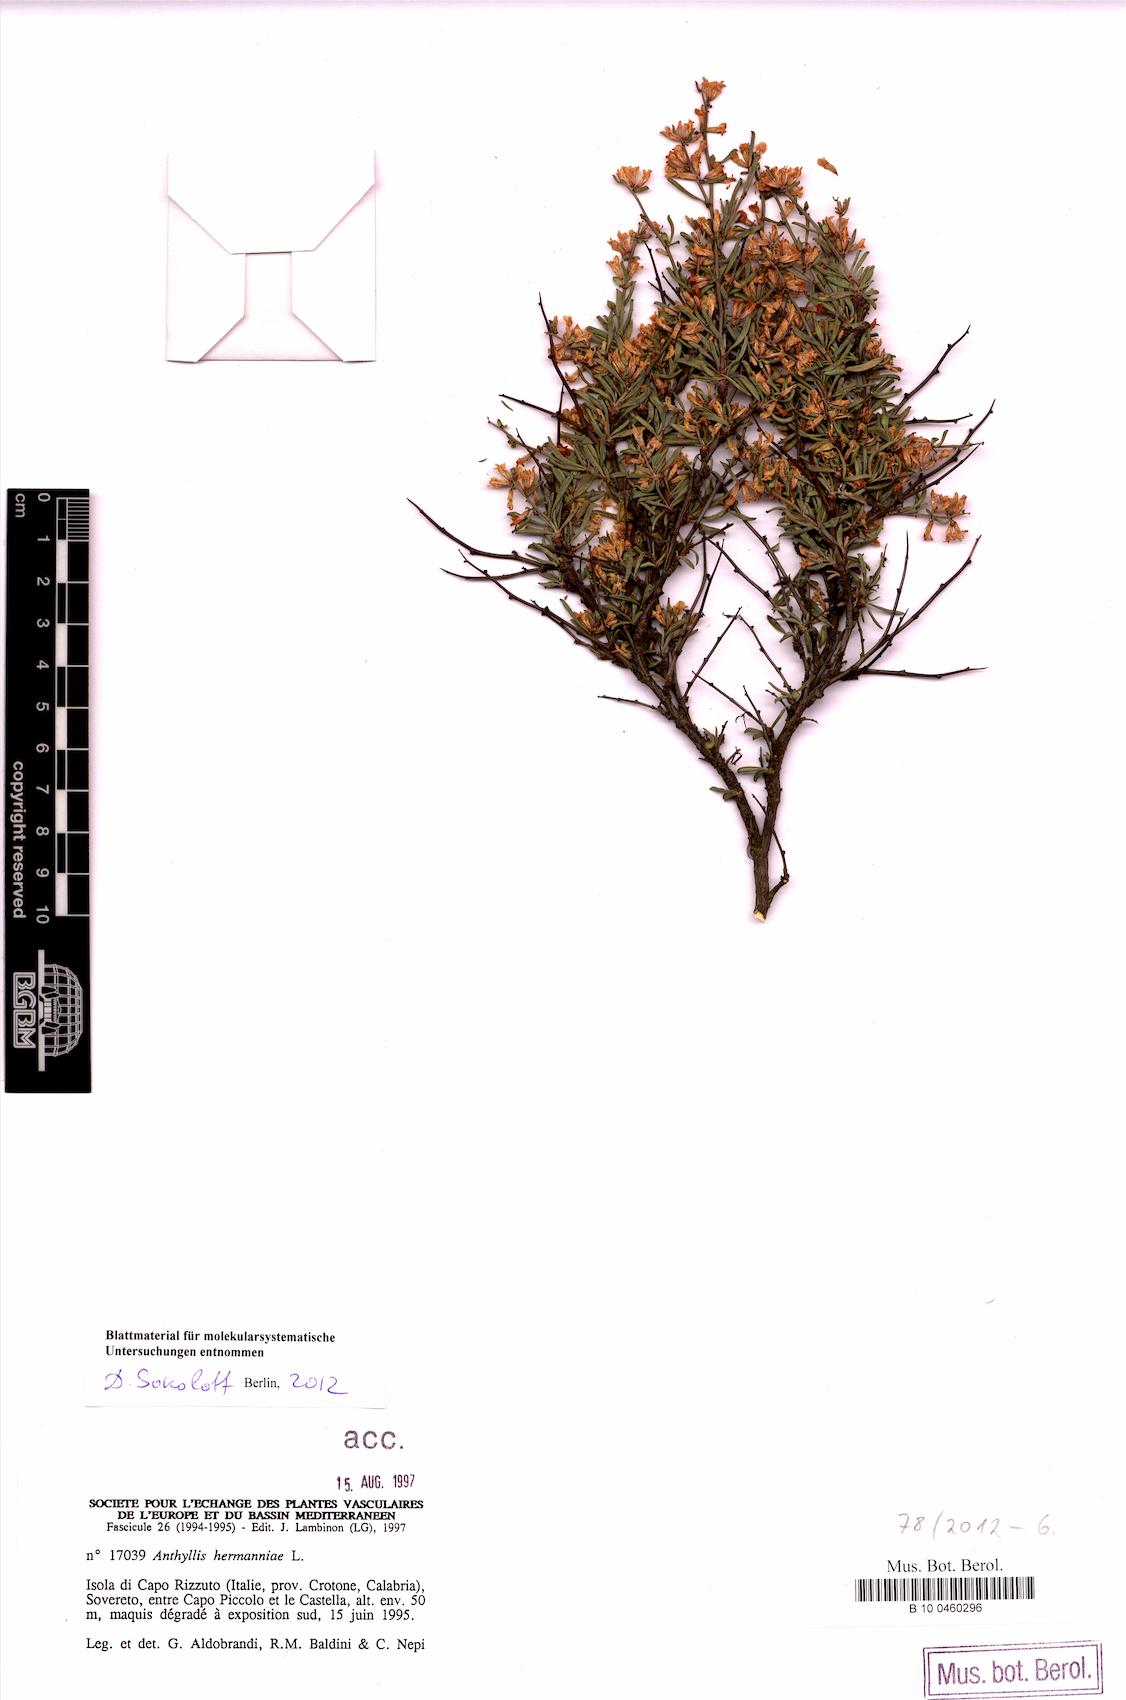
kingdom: Plantae
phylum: Tracheophyta
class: Magnoliopsida
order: Fabales
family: Fabaceae
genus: Anthyllis
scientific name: Anthyllis hermanniae
